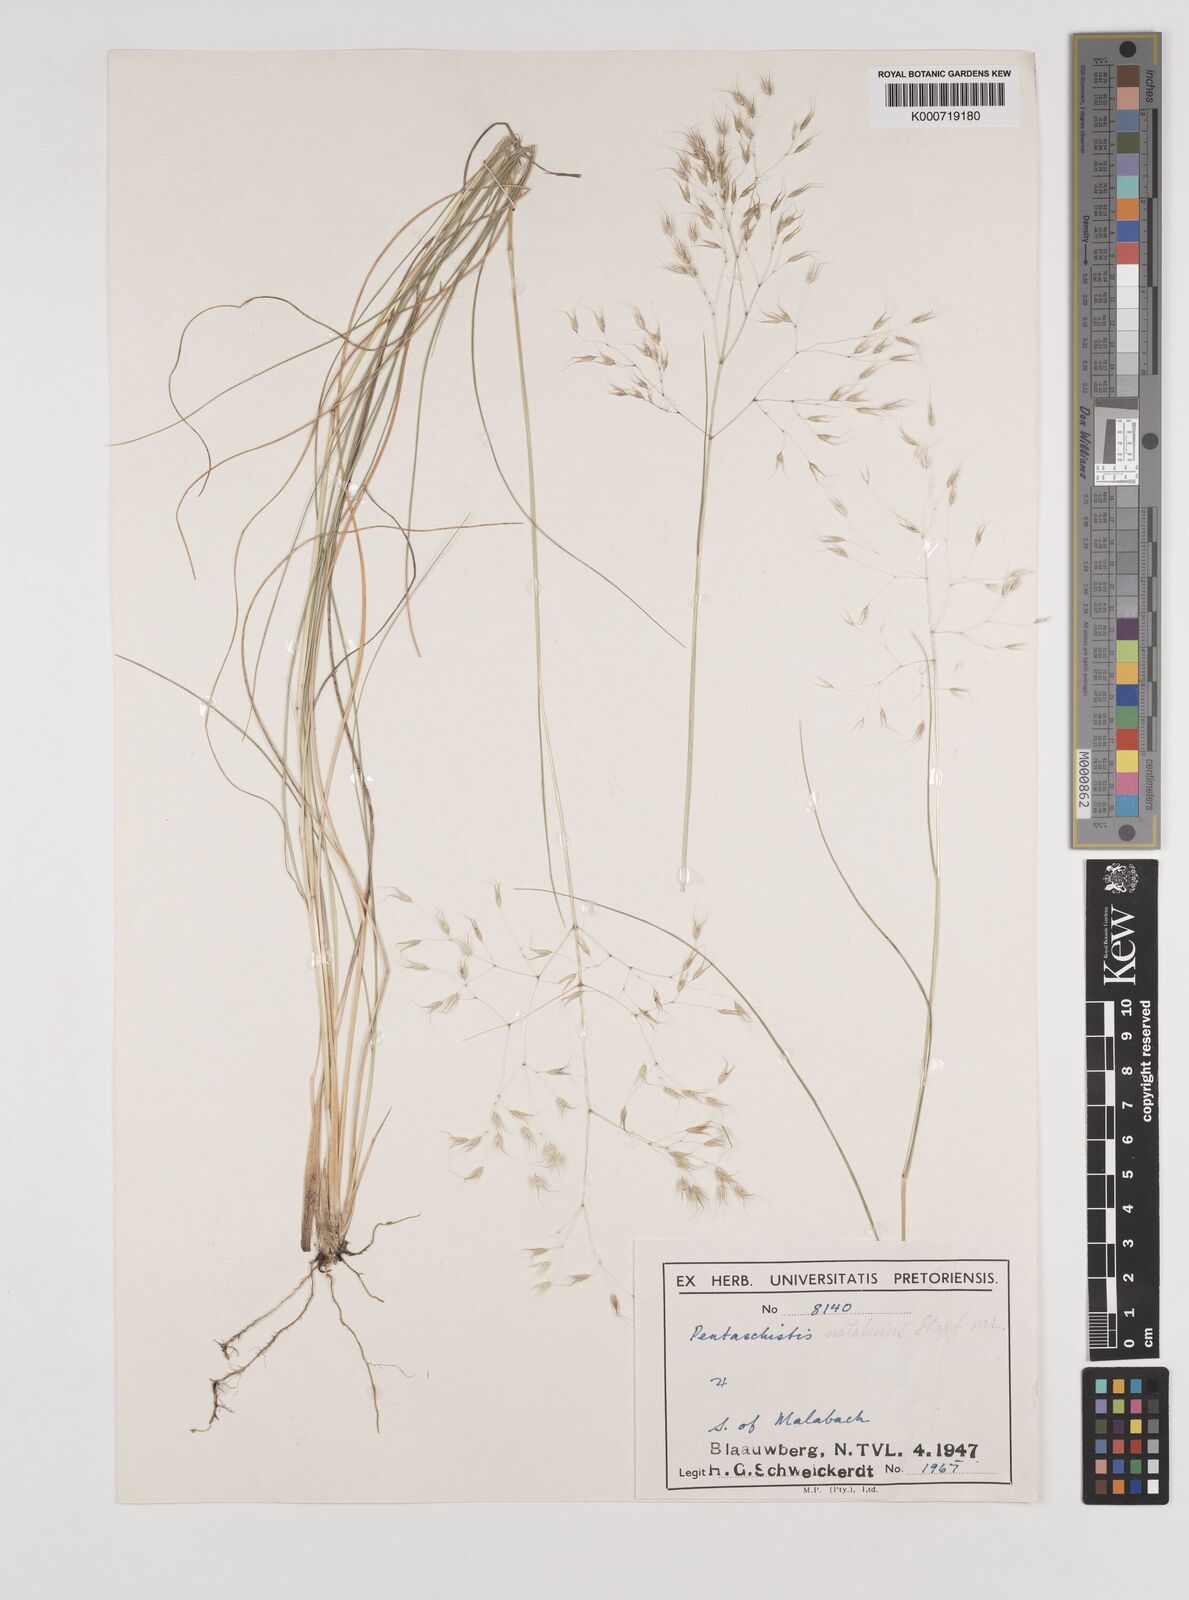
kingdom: Plantae
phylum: Tracheophyta
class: Liliopsida
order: Poales
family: Poaceae
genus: Pentameris
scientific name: Pentameris natalensis
